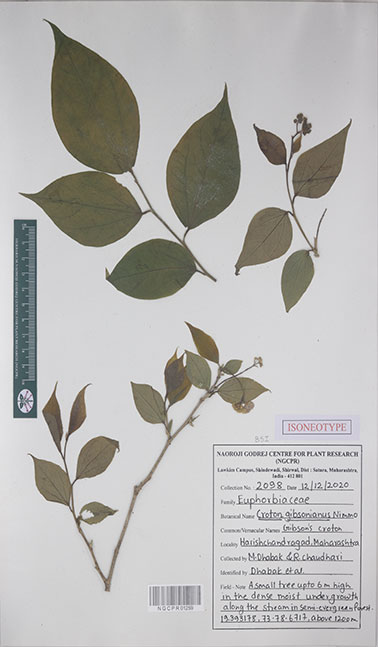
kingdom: Plantae
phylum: Tracheophyta
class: Magnoliopsida
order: Malpighiales
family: Euphorbiaceae
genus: Croton
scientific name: Croton gibsonianus
